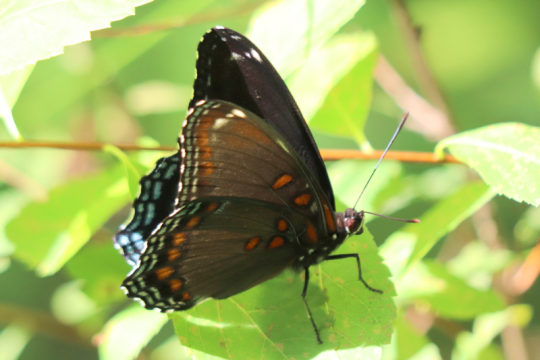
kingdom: Animalia
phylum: Arthropoda
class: Insecta
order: Lepidoptera
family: Nymphalidae
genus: Limenitis
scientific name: Limenitis arthemis
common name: Red-spotted Admiral
